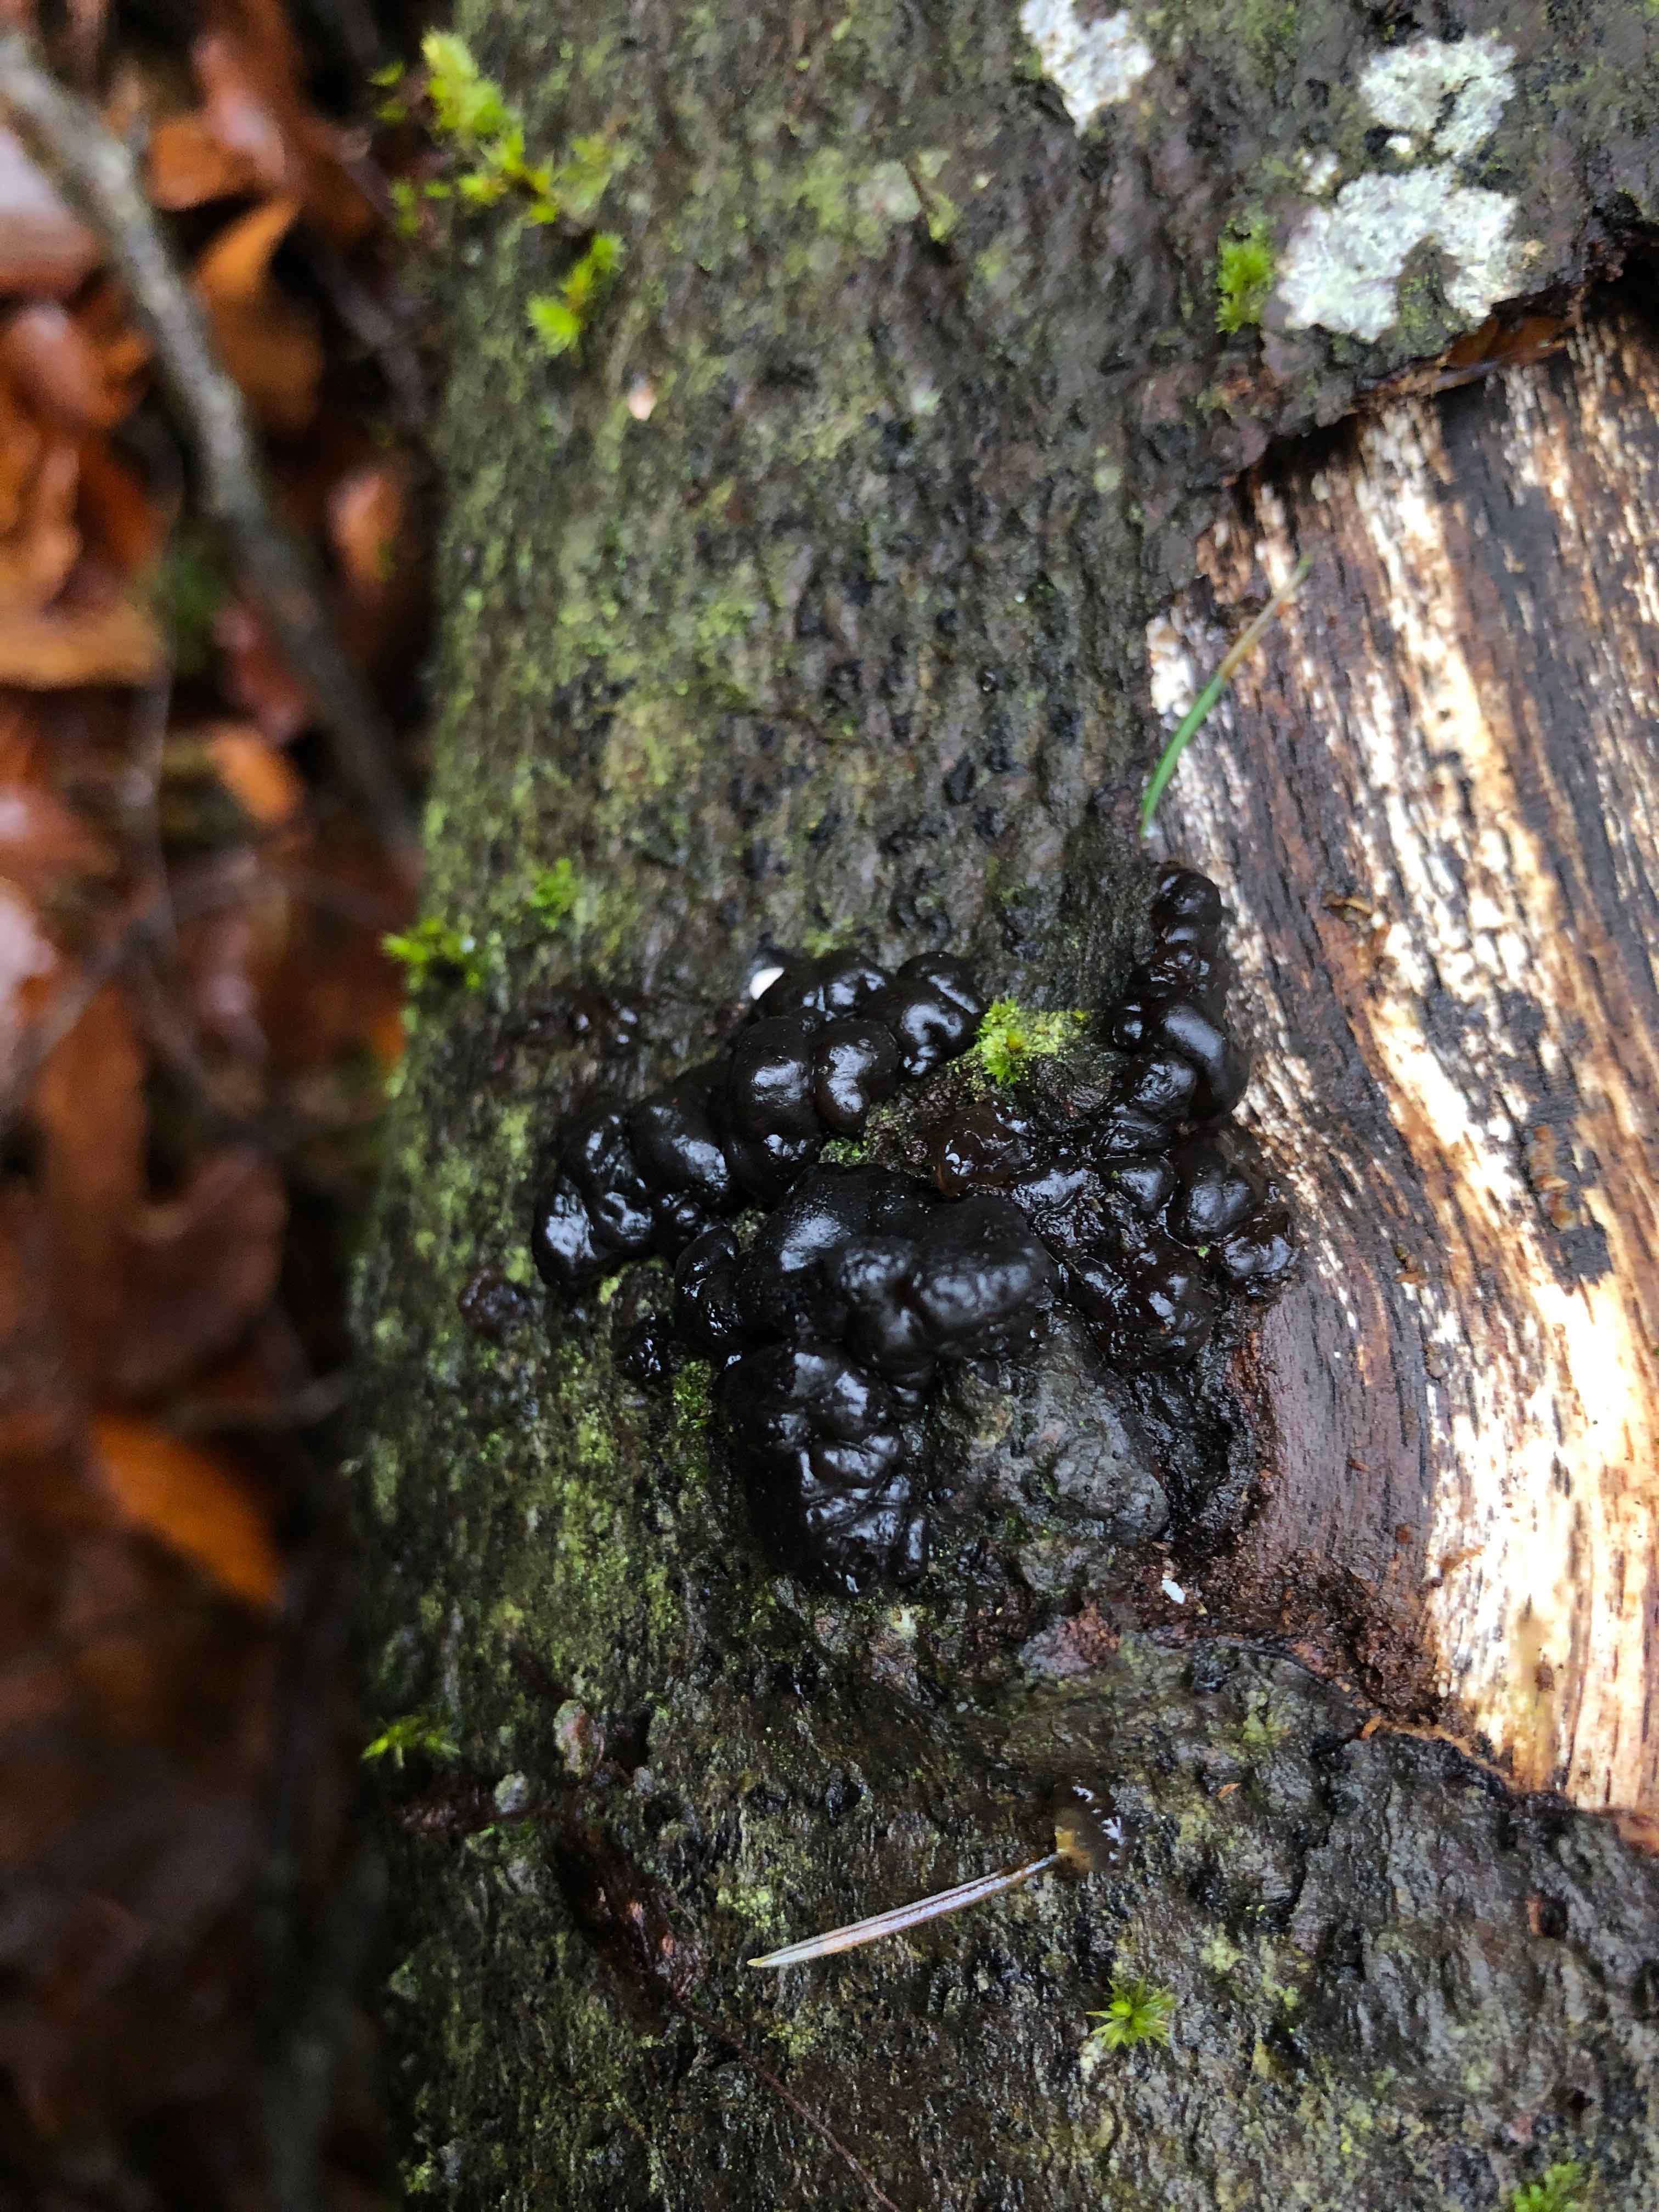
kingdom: Fungi
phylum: Basidiomycota
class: Agaricomycetes
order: Auriculariales
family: Auriculariaceae
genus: Exidia
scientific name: Exidia nigricans
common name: almindelig bævretop
